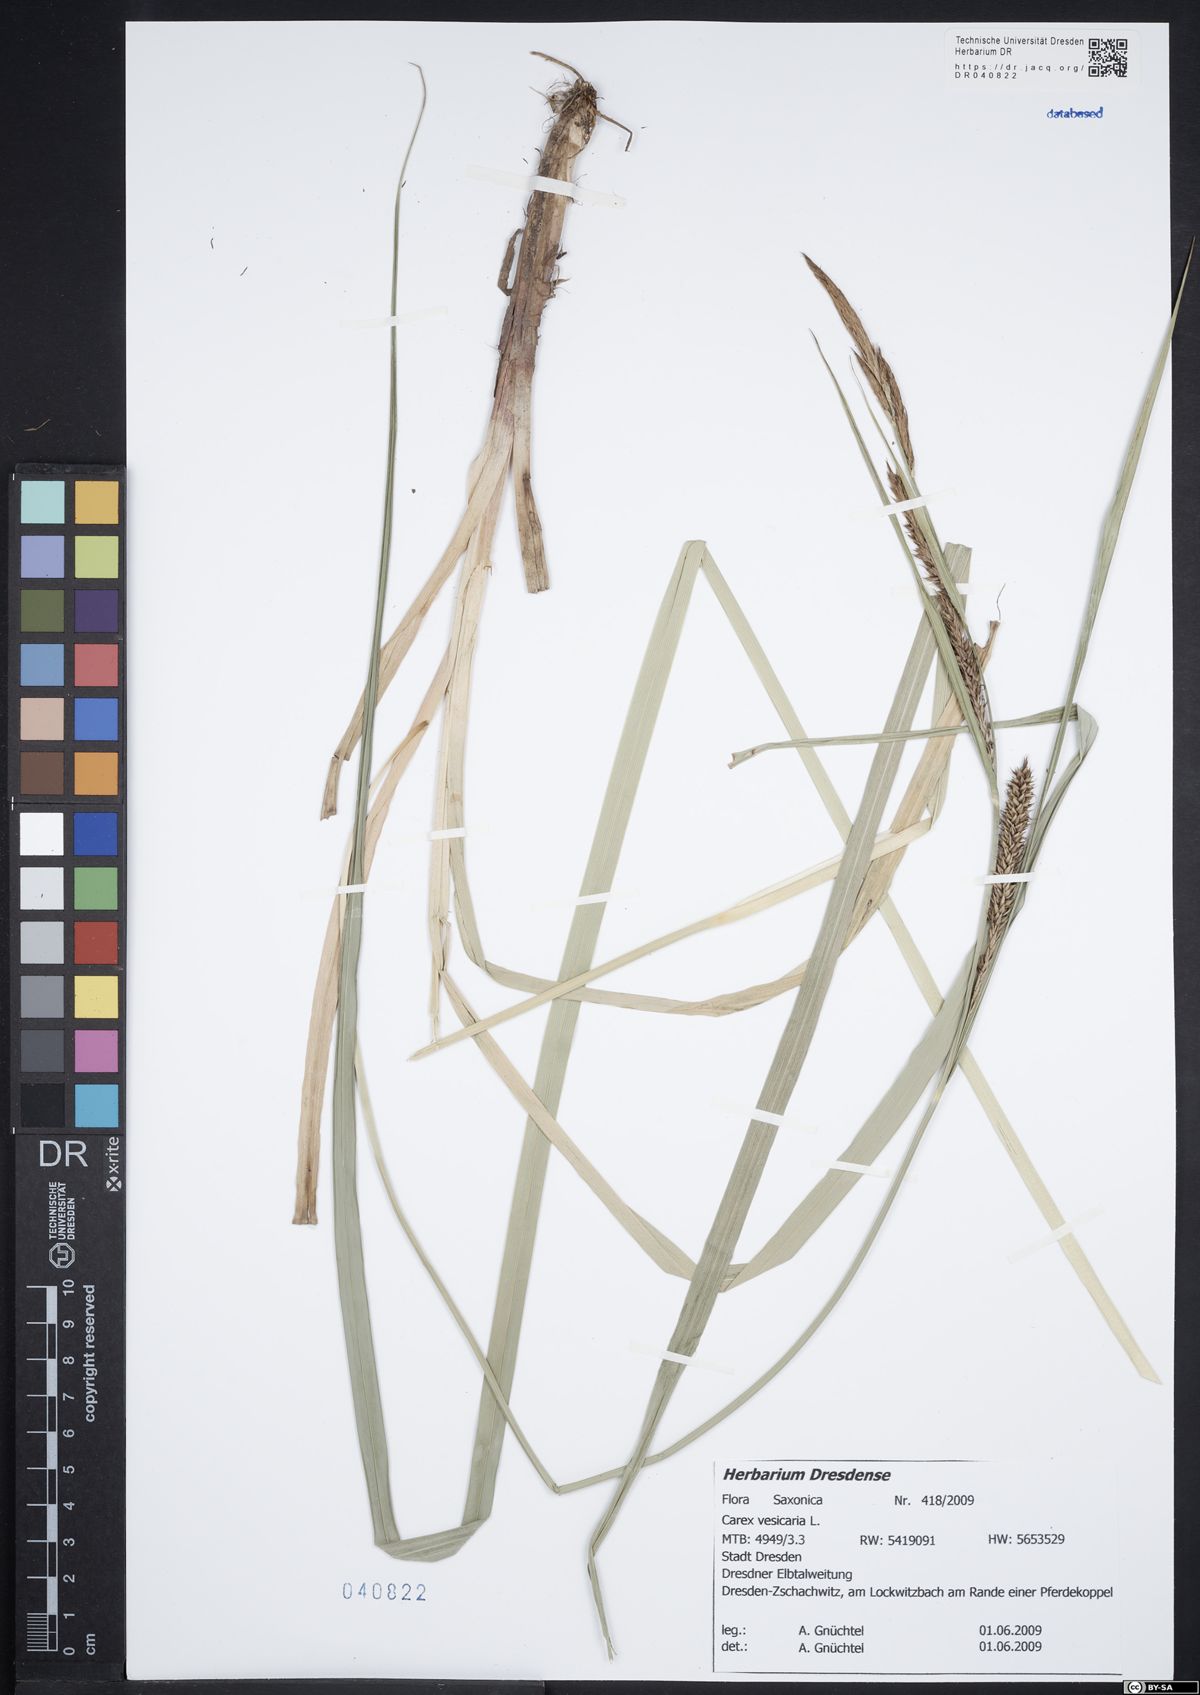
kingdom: Plantae
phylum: Tracheophyta
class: Liliopsida
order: Poales
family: Cyperaceae
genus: Carex
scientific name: Carex vesicaria
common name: Bladder-sedge
